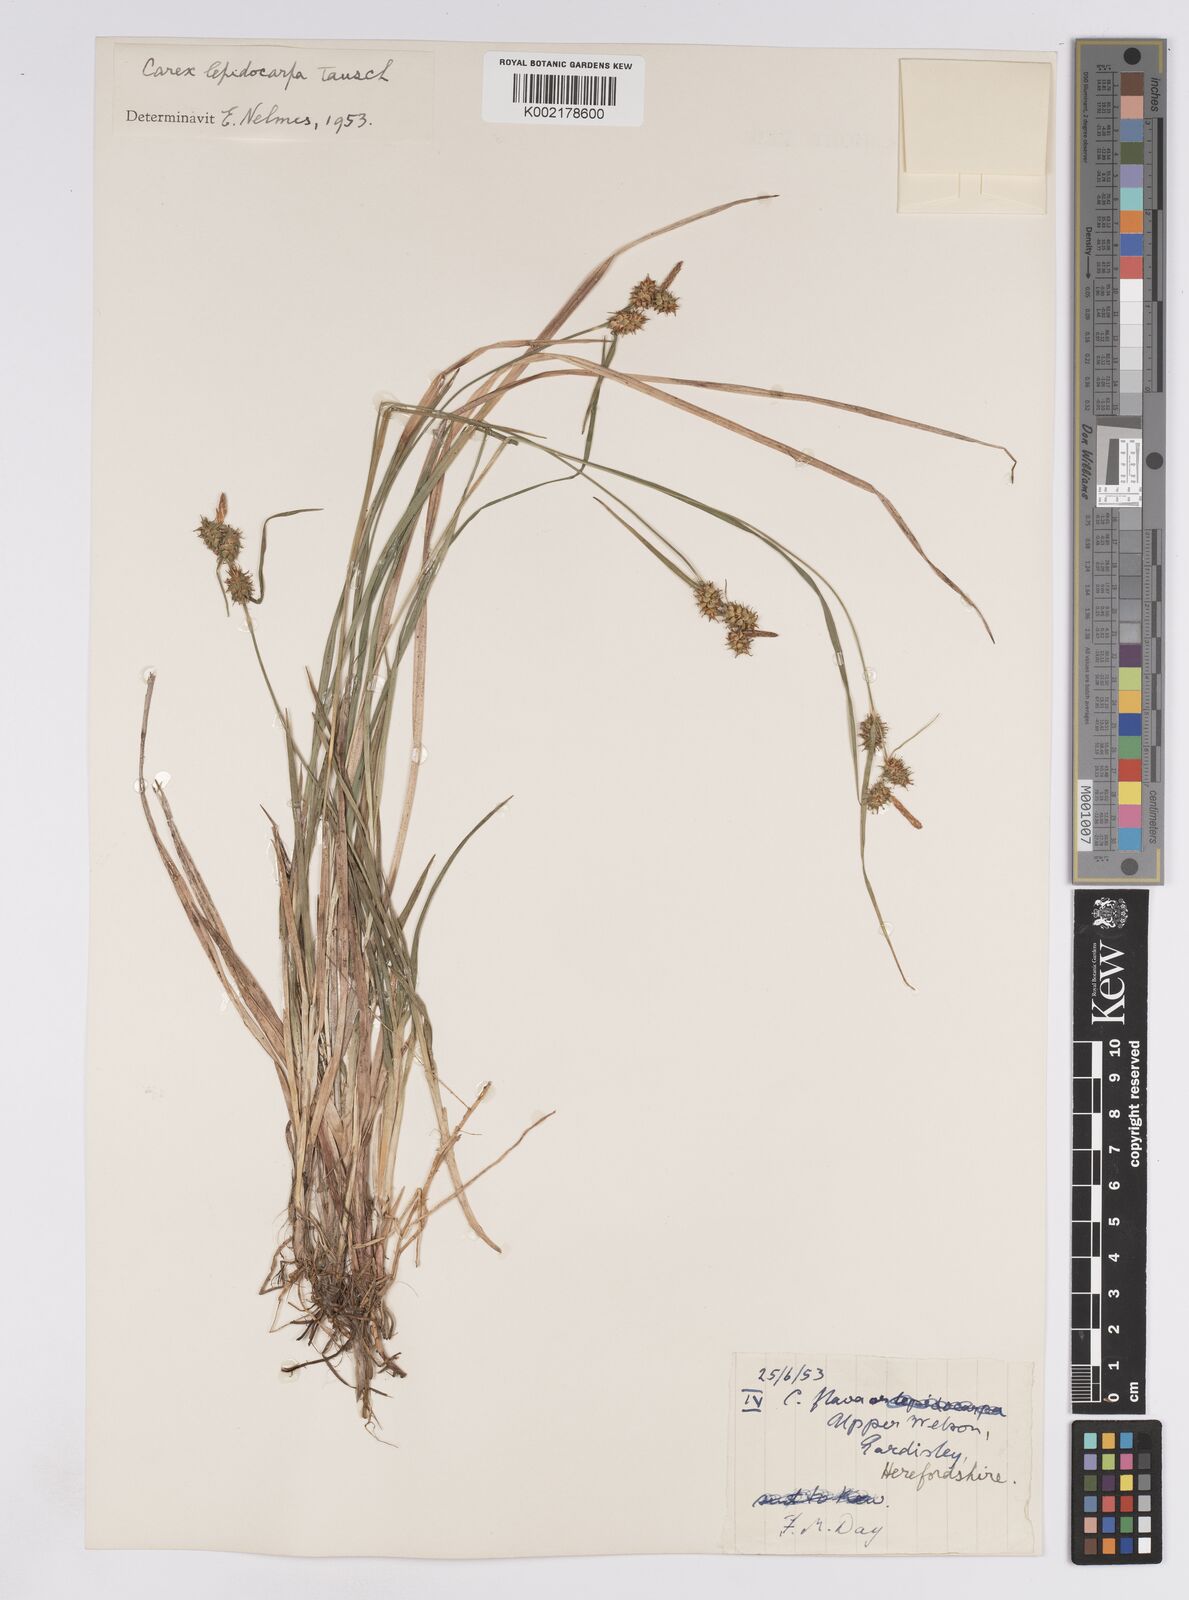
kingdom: Plantae
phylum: Tracheophyta
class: Liliopsida
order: Poales
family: Cyperaceae
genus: Carex
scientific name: Carex lepidocarpa
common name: Long-stalked yellow-sedge
